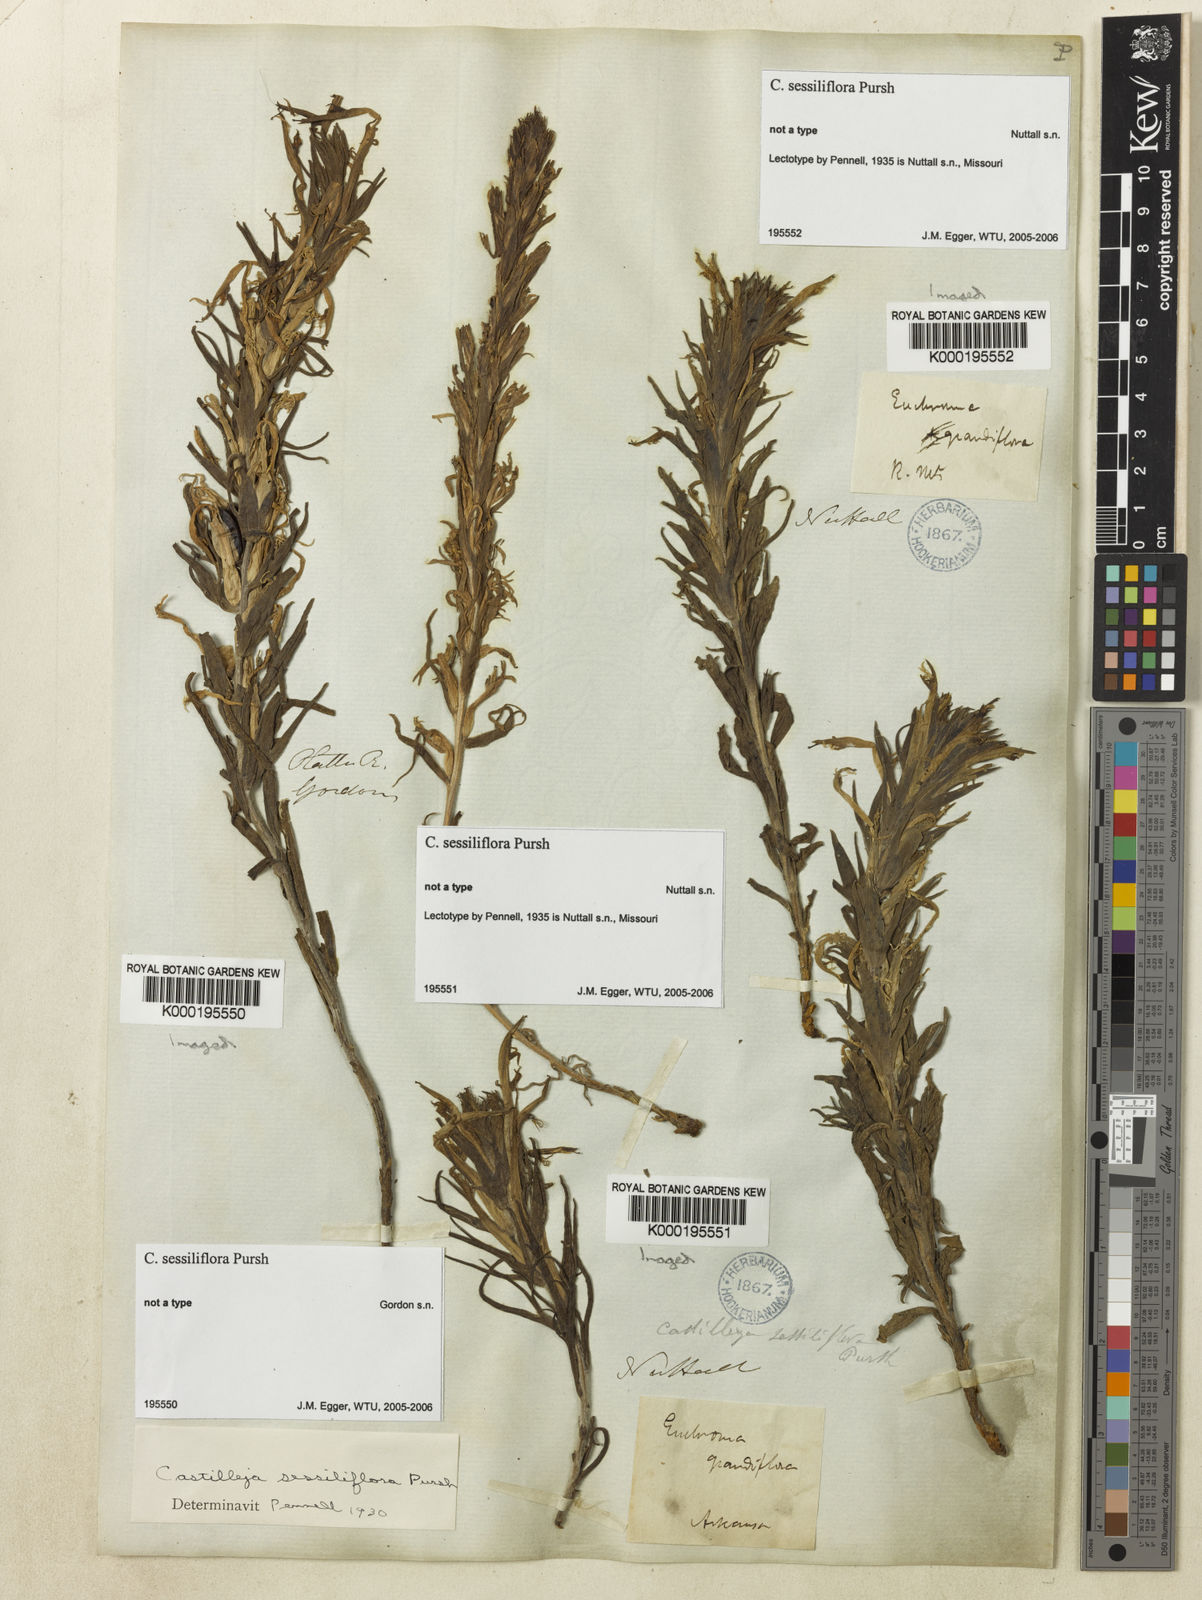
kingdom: Plantae
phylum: Tracheophyta
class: Magnoliopsida
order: Lamiales
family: Orobanchaceae
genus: Castilleja
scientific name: Castilleja sessiliflora
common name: Downy paintbrush
